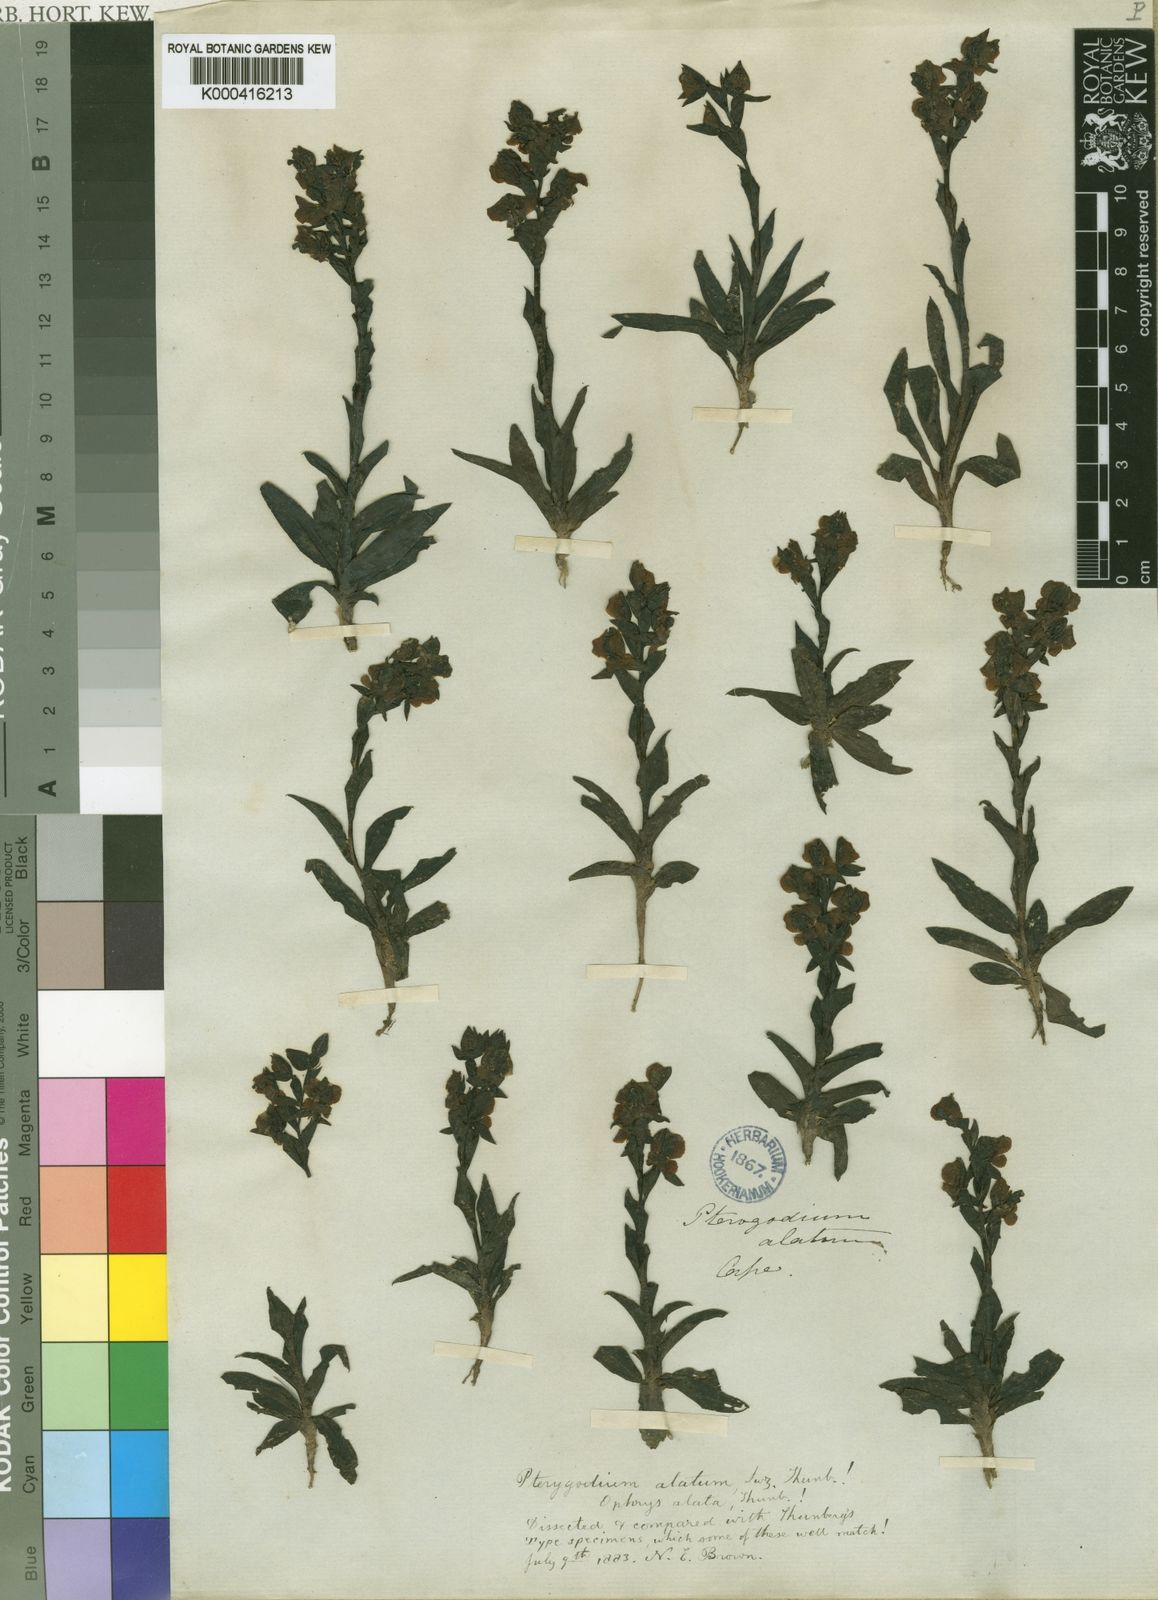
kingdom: Plantae
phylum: Tracheophyta
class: Liliopsida
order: Asparagales
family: Orchidaceae
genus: Pterygodium
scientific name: Pterygodium alatum
